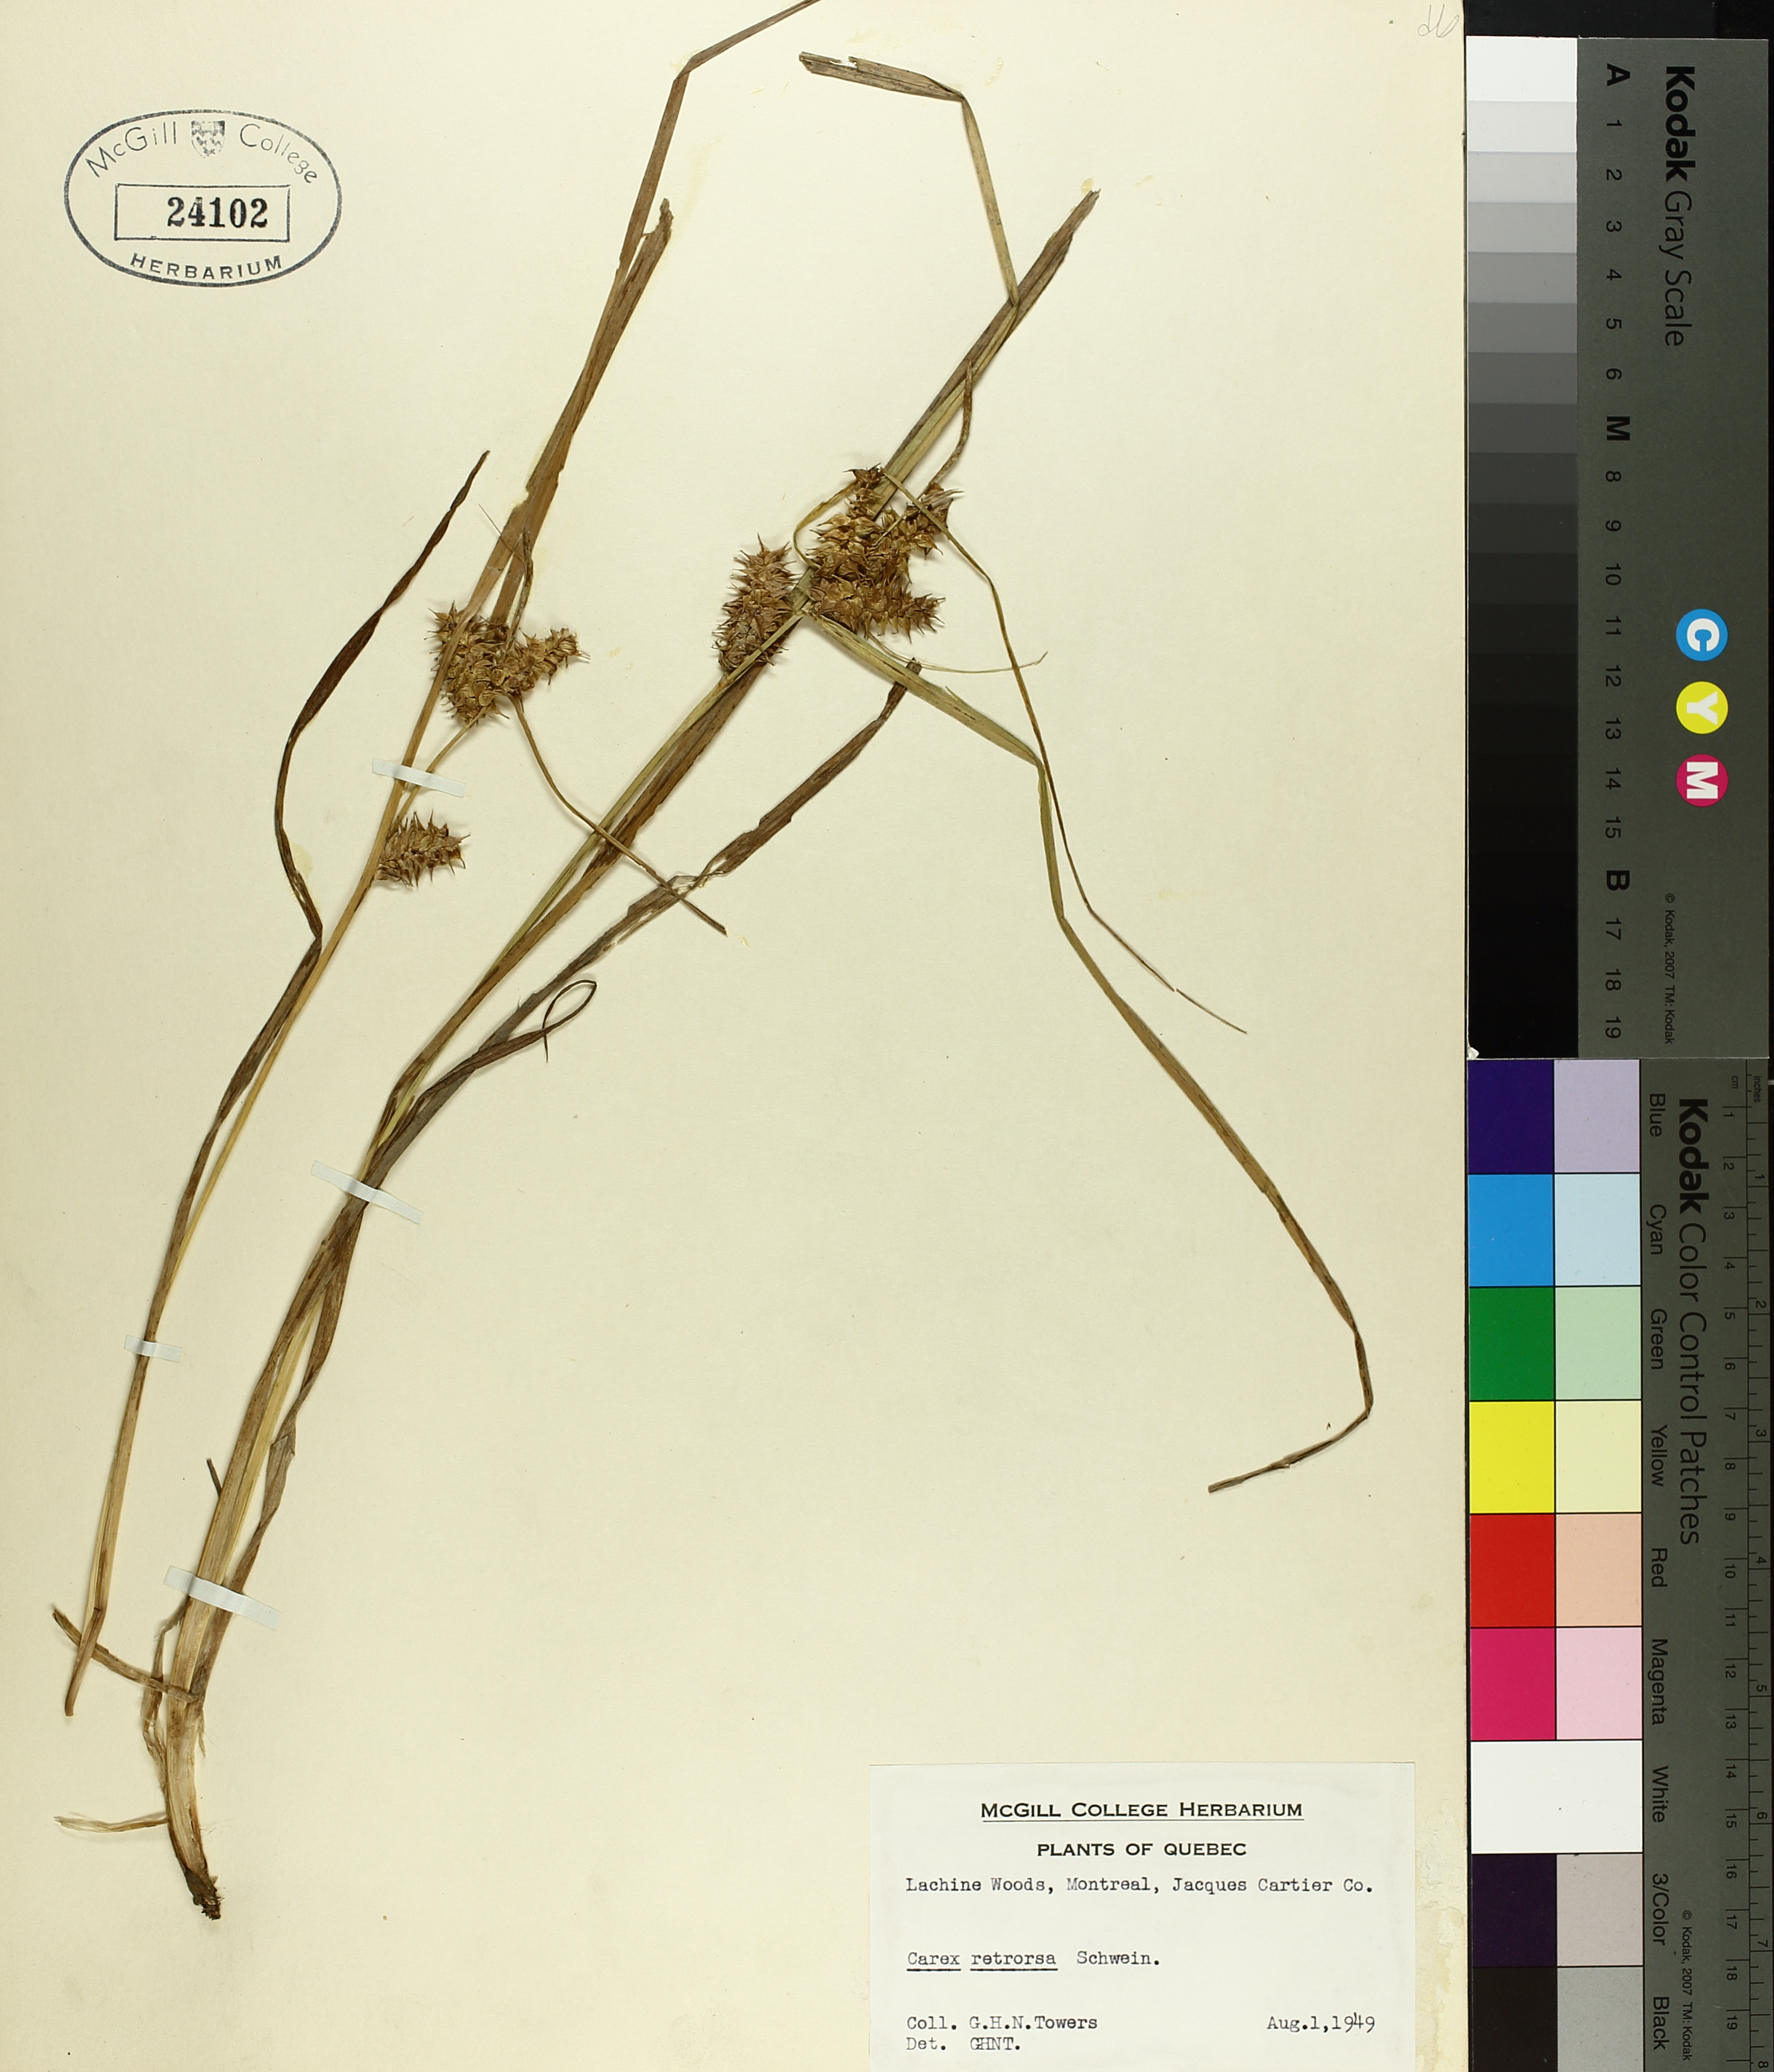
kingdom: Plantae
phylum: Tracheophyta
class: Liliopsida
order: Poales
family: Cyperaceae
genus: Carex
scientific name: Carex retrorsa
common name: Knot-sheath sedge
